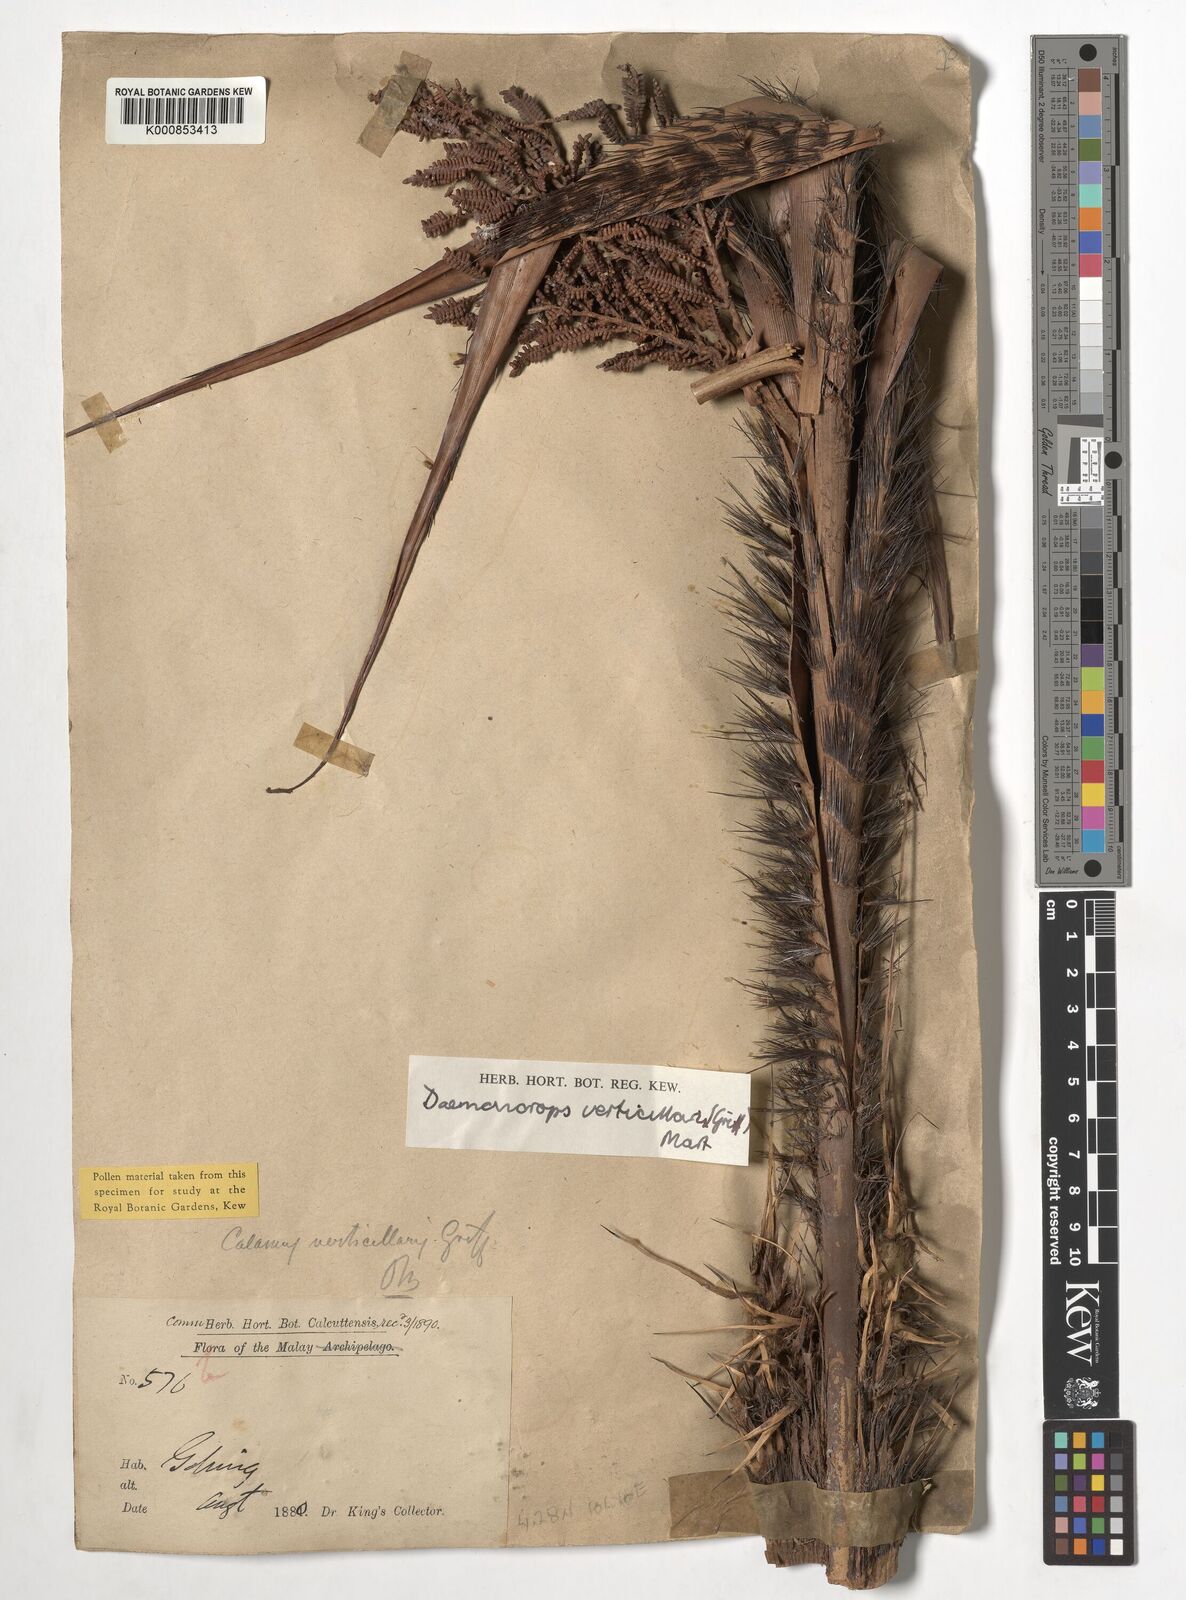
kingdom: Plantae
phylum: Tracheophyta
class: Liliopsida
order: Arecales
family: Arecaceae
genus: Calamus
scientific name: Calamus verticillaris
